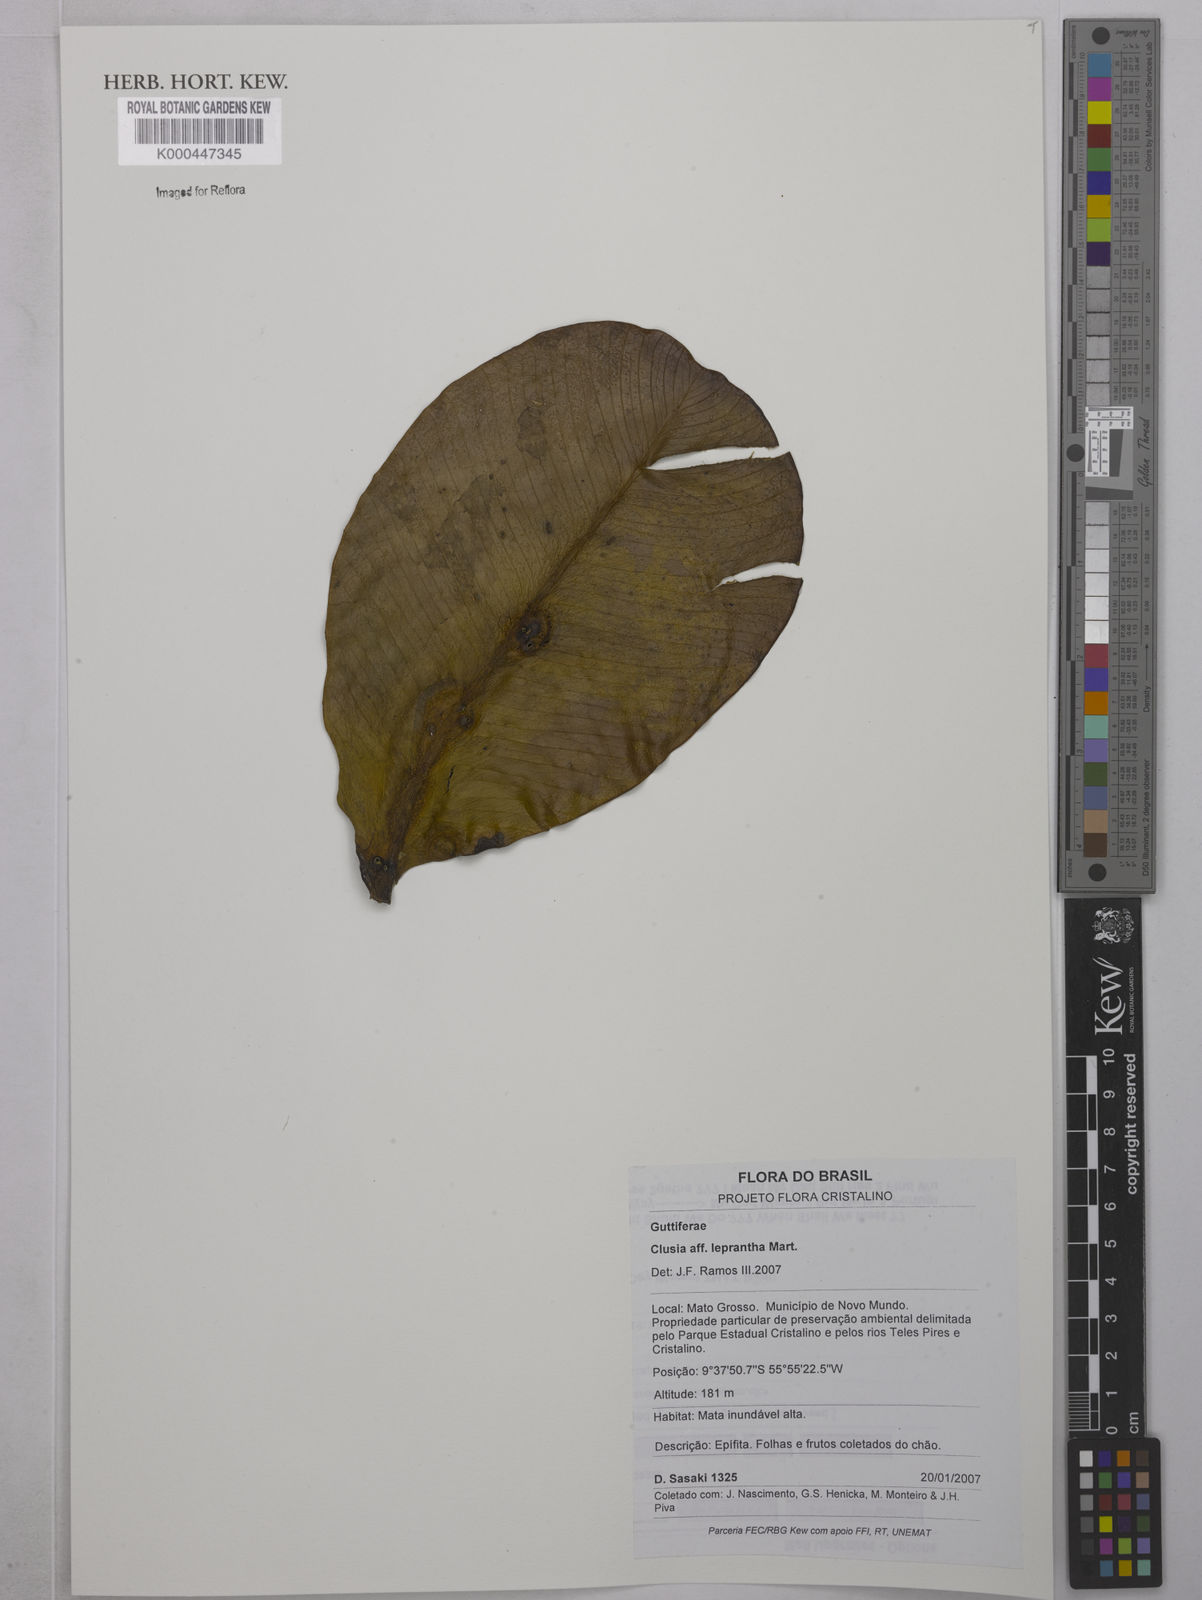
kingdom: Plantae
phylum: Tracheophyta
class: Magnoliopsida
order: Malpighiales
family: Clusiaceae
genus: Clusia
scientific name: Clusia leprantha
